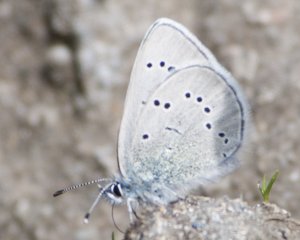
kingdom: Animalia
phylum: Arthropoda
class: Insecta
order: Lepidoptera
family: Lycaenidae
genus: Glaucopsyche
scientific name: Glaucopsyche lygdamus
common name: Silvery Blue
